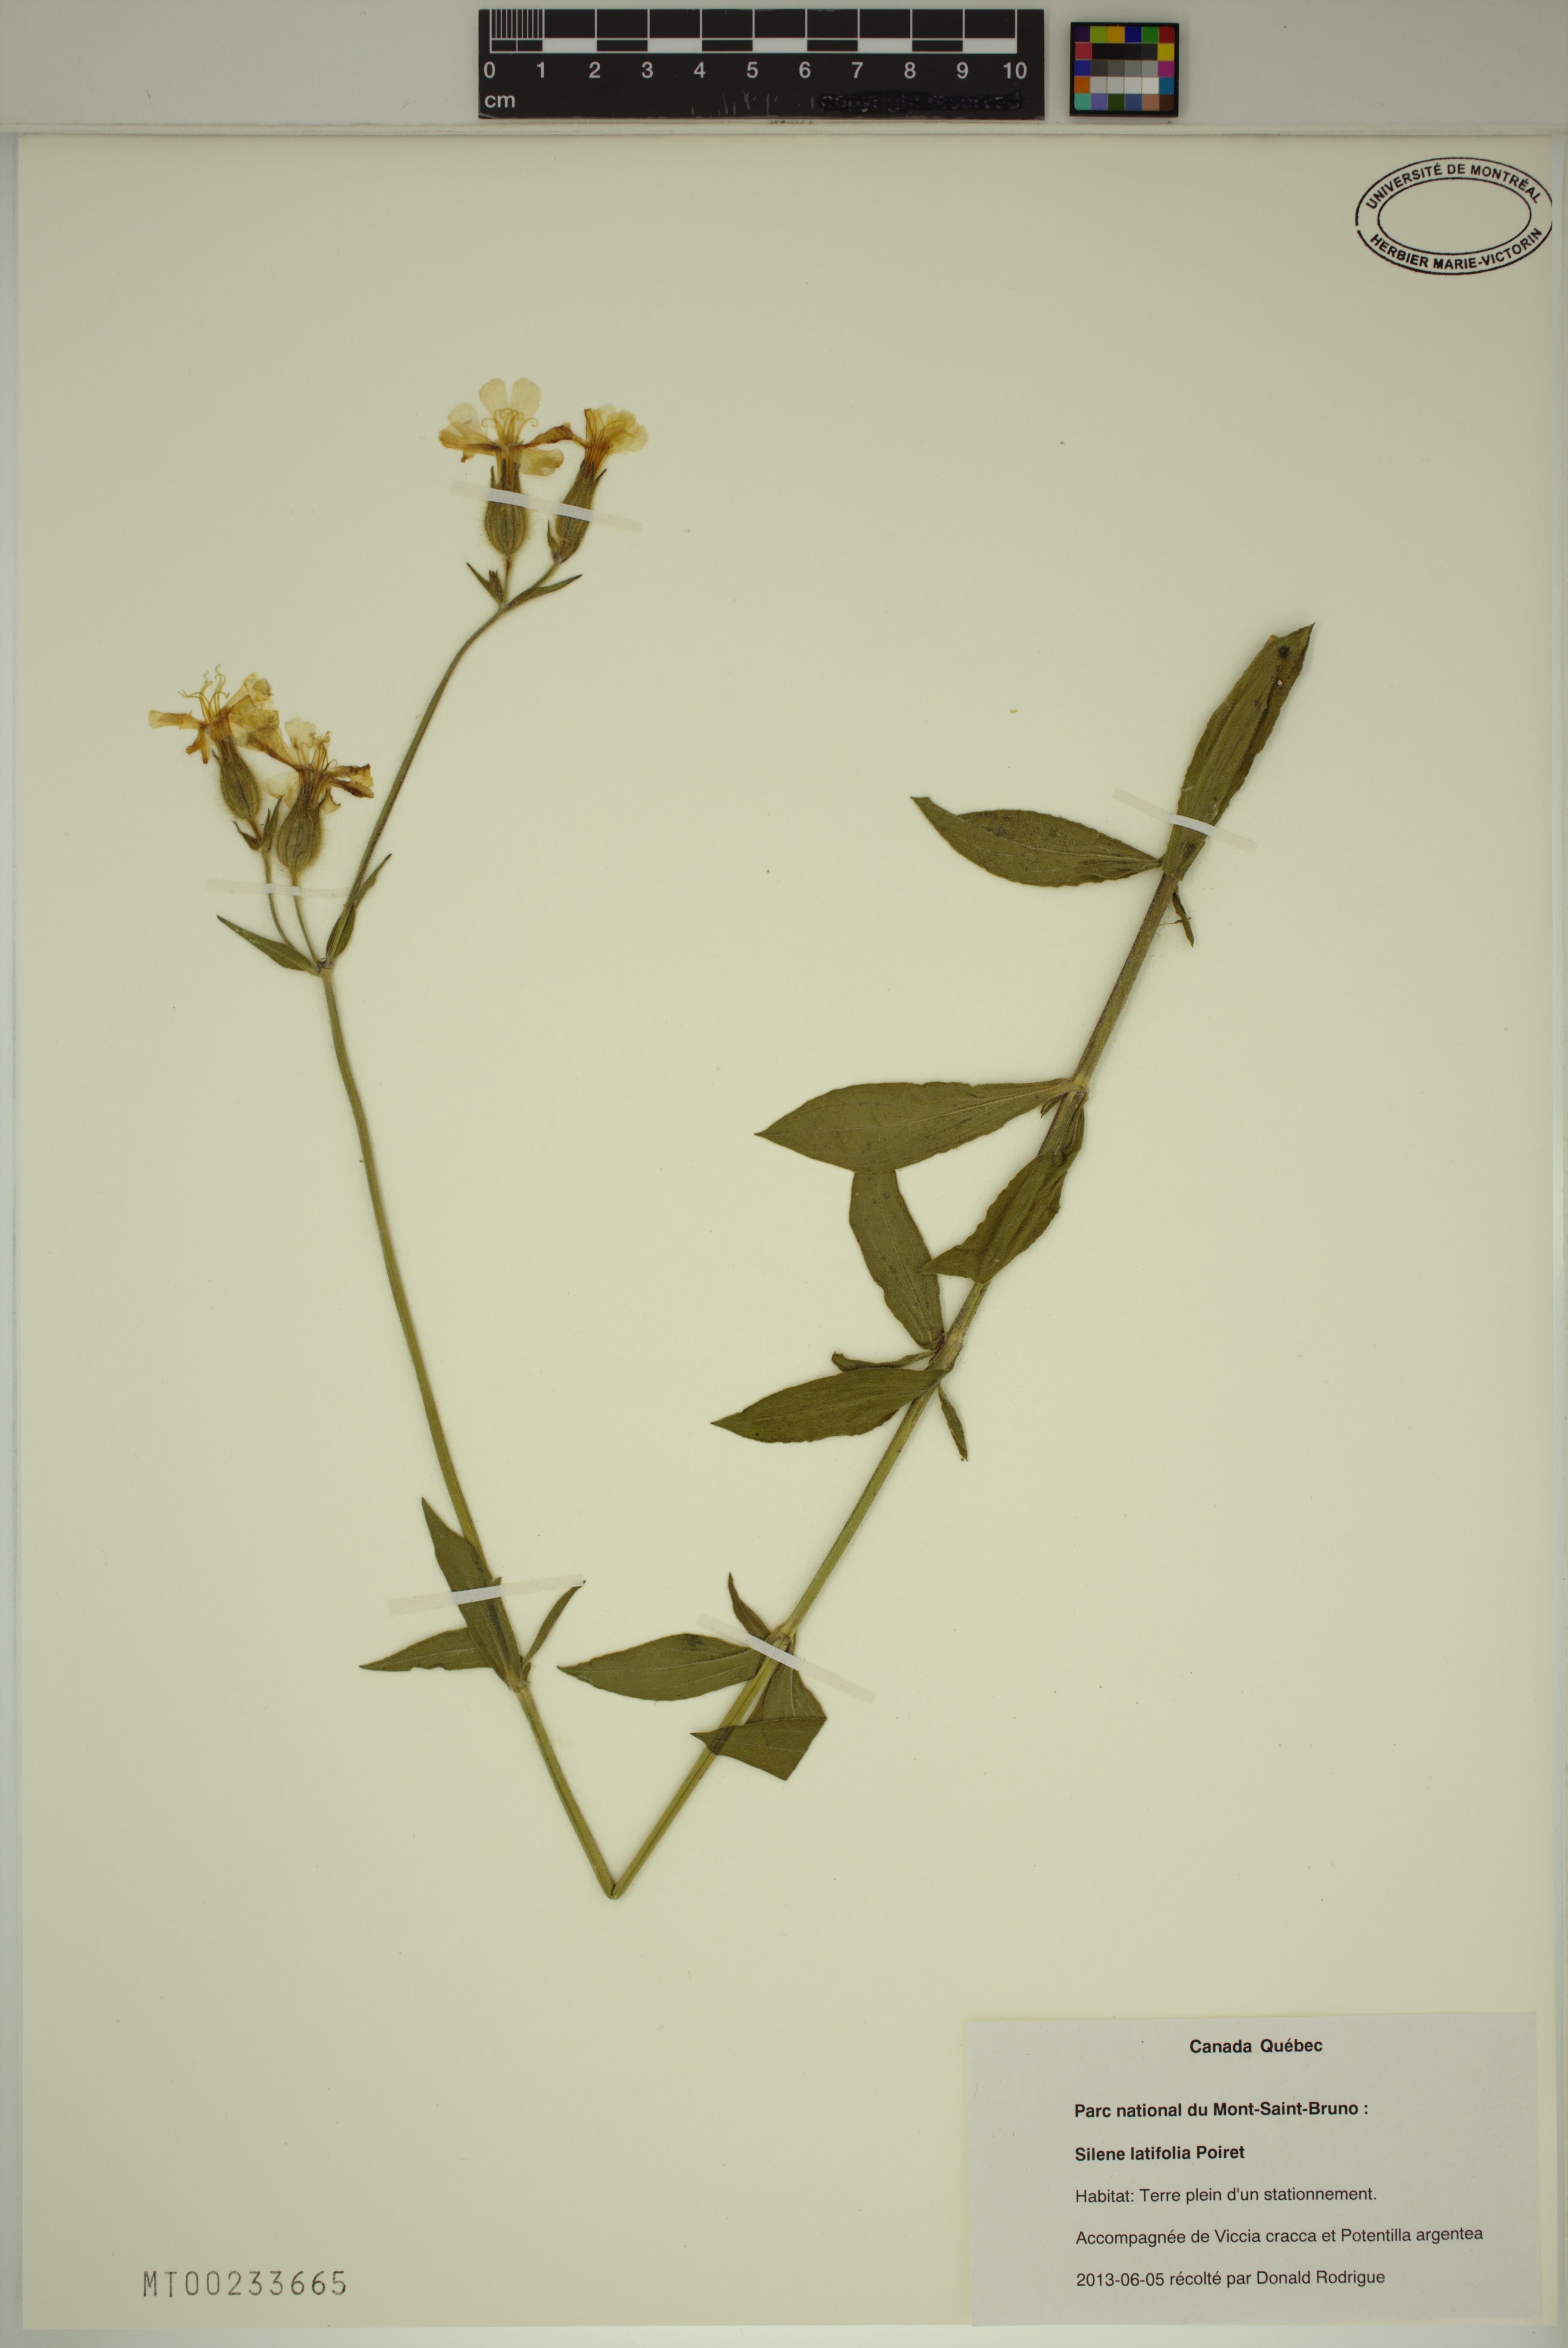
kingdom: Plantae
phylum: Tracheophyta
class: Magnoliopsida
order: Caryophyllales
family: Caryophyllaceae
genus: Silene
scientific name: Silene latifolia
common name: White campion
